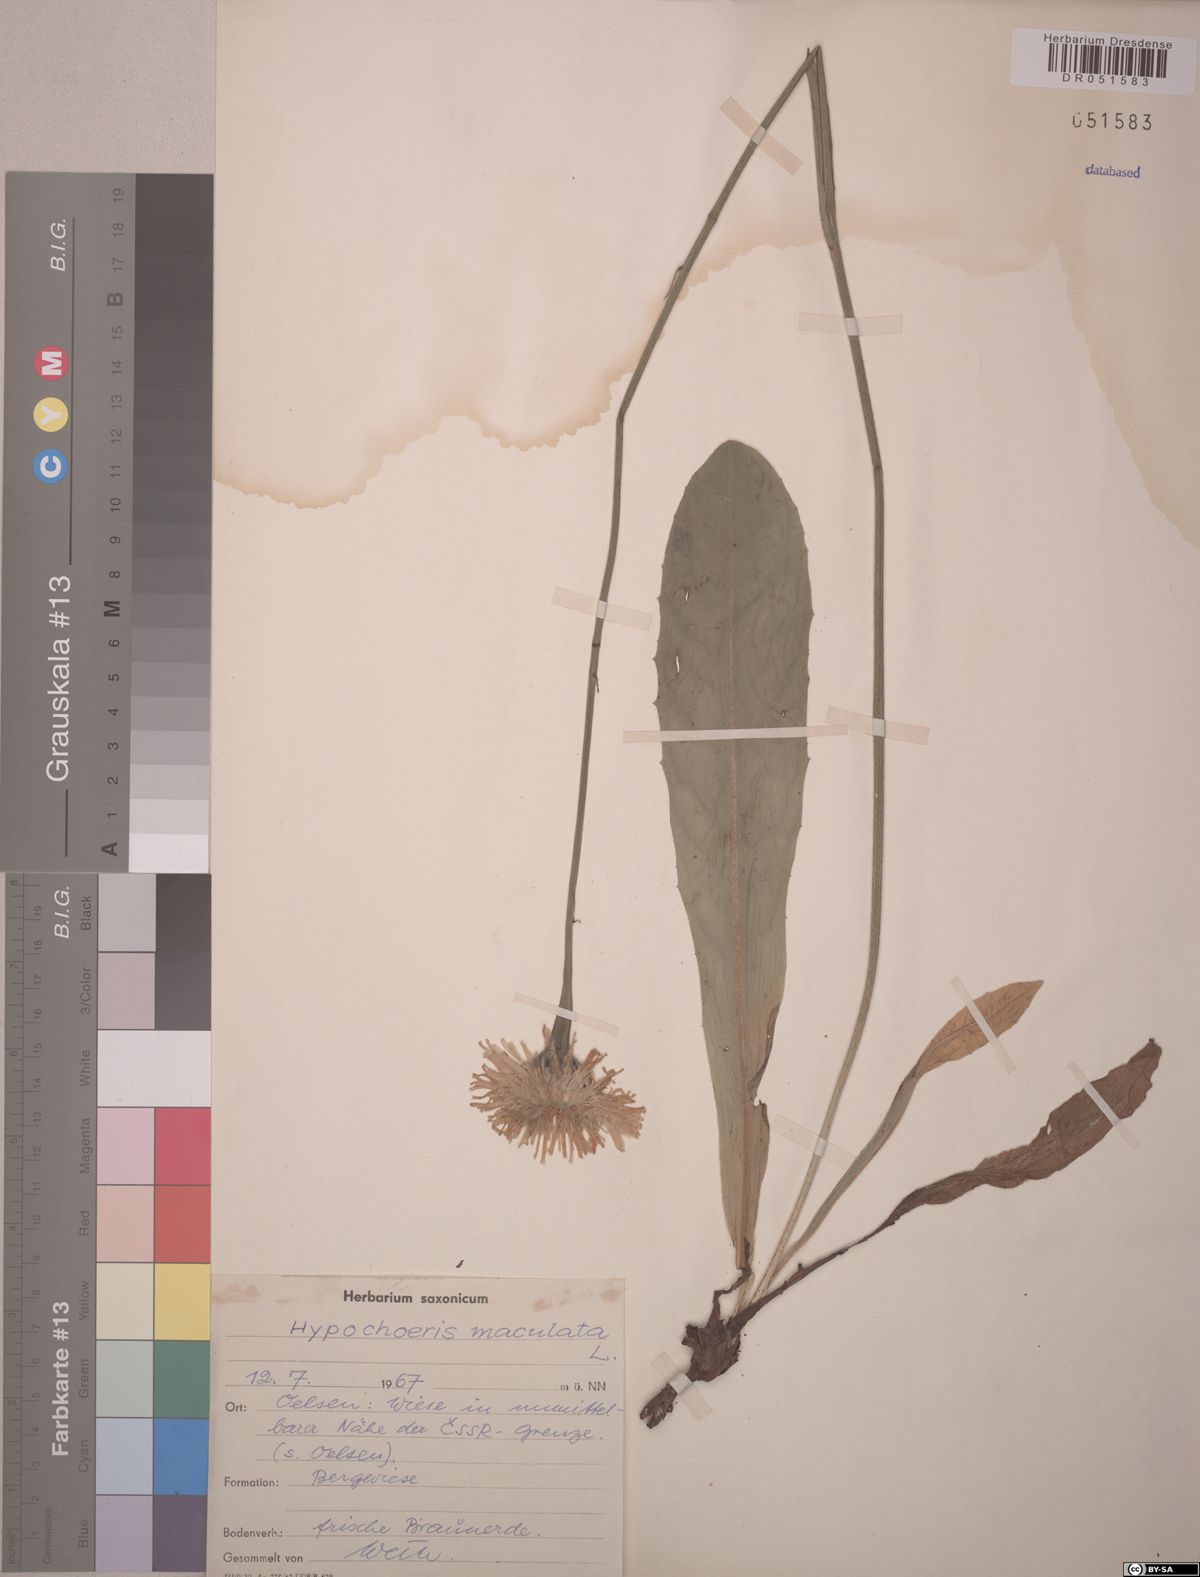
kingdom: Plantae
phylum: Tracheophyta
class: Magnoliopsida
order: Asterales
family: Asteraceae
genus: Trommsdorffia
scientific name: Trommsdorffia maculata
